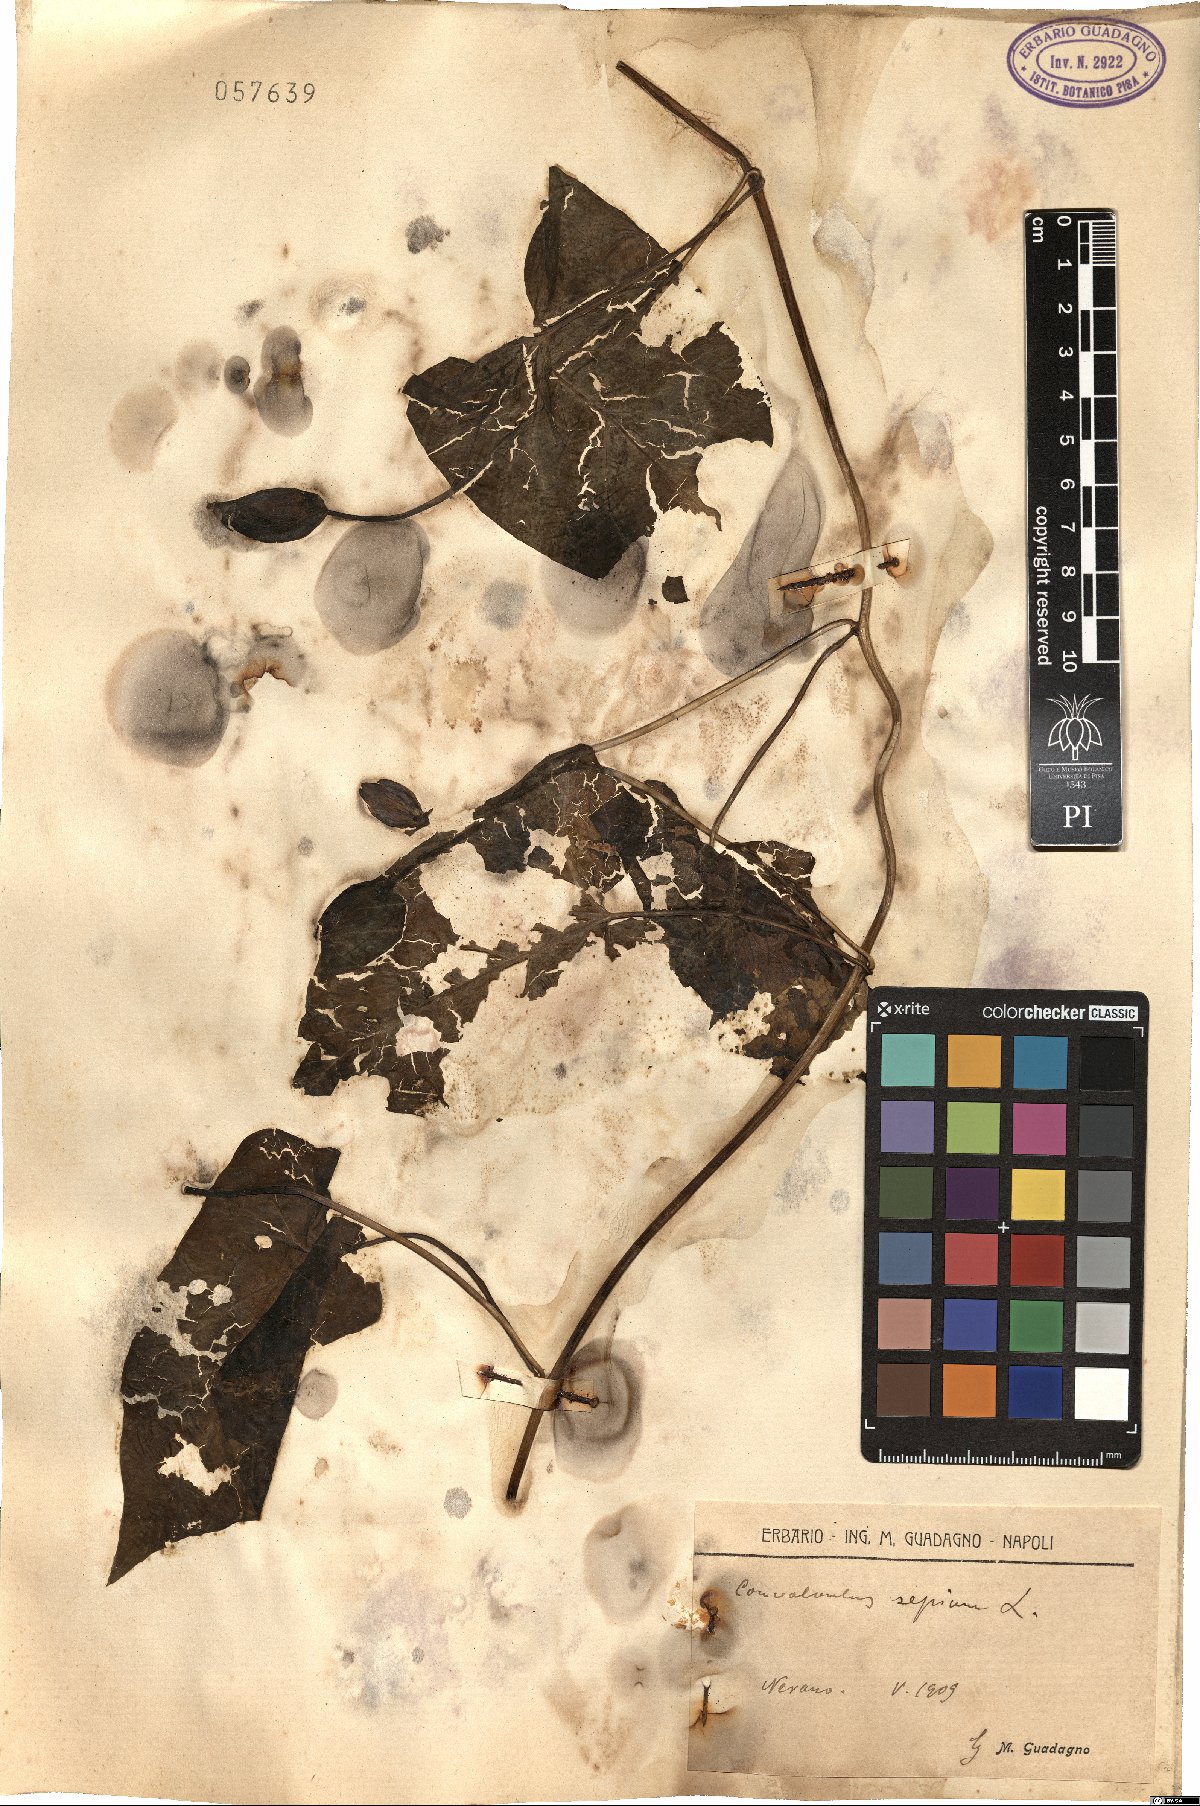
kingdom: Plantae
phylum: Tracheophyta
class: Magnoliopsida
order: Solanales
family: Convolvulaceae
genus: Calystegia
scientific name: Calystegia sepium
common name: Hedge bindweed
